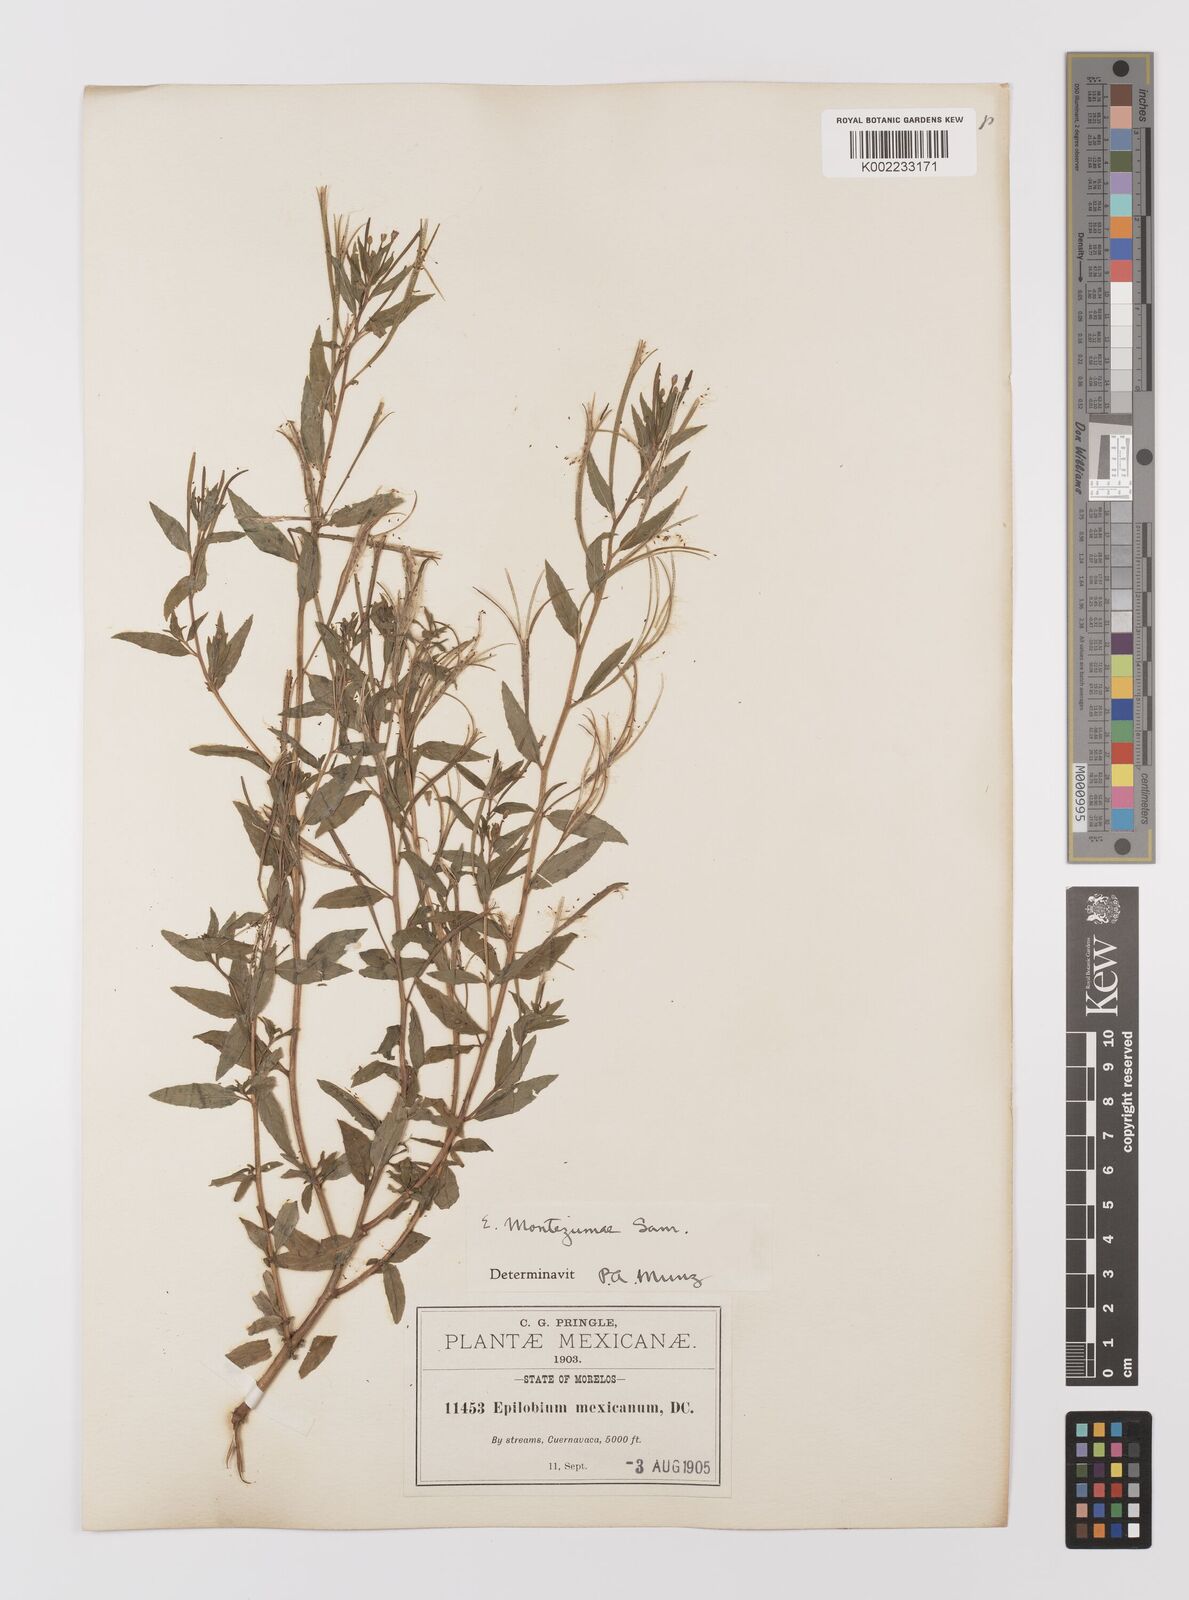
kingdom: Plantae
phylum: Tracheophyta
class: Magnoliopsida
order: Myrtales
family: Onagraceae
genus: Epilobium
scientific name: Epilobium
